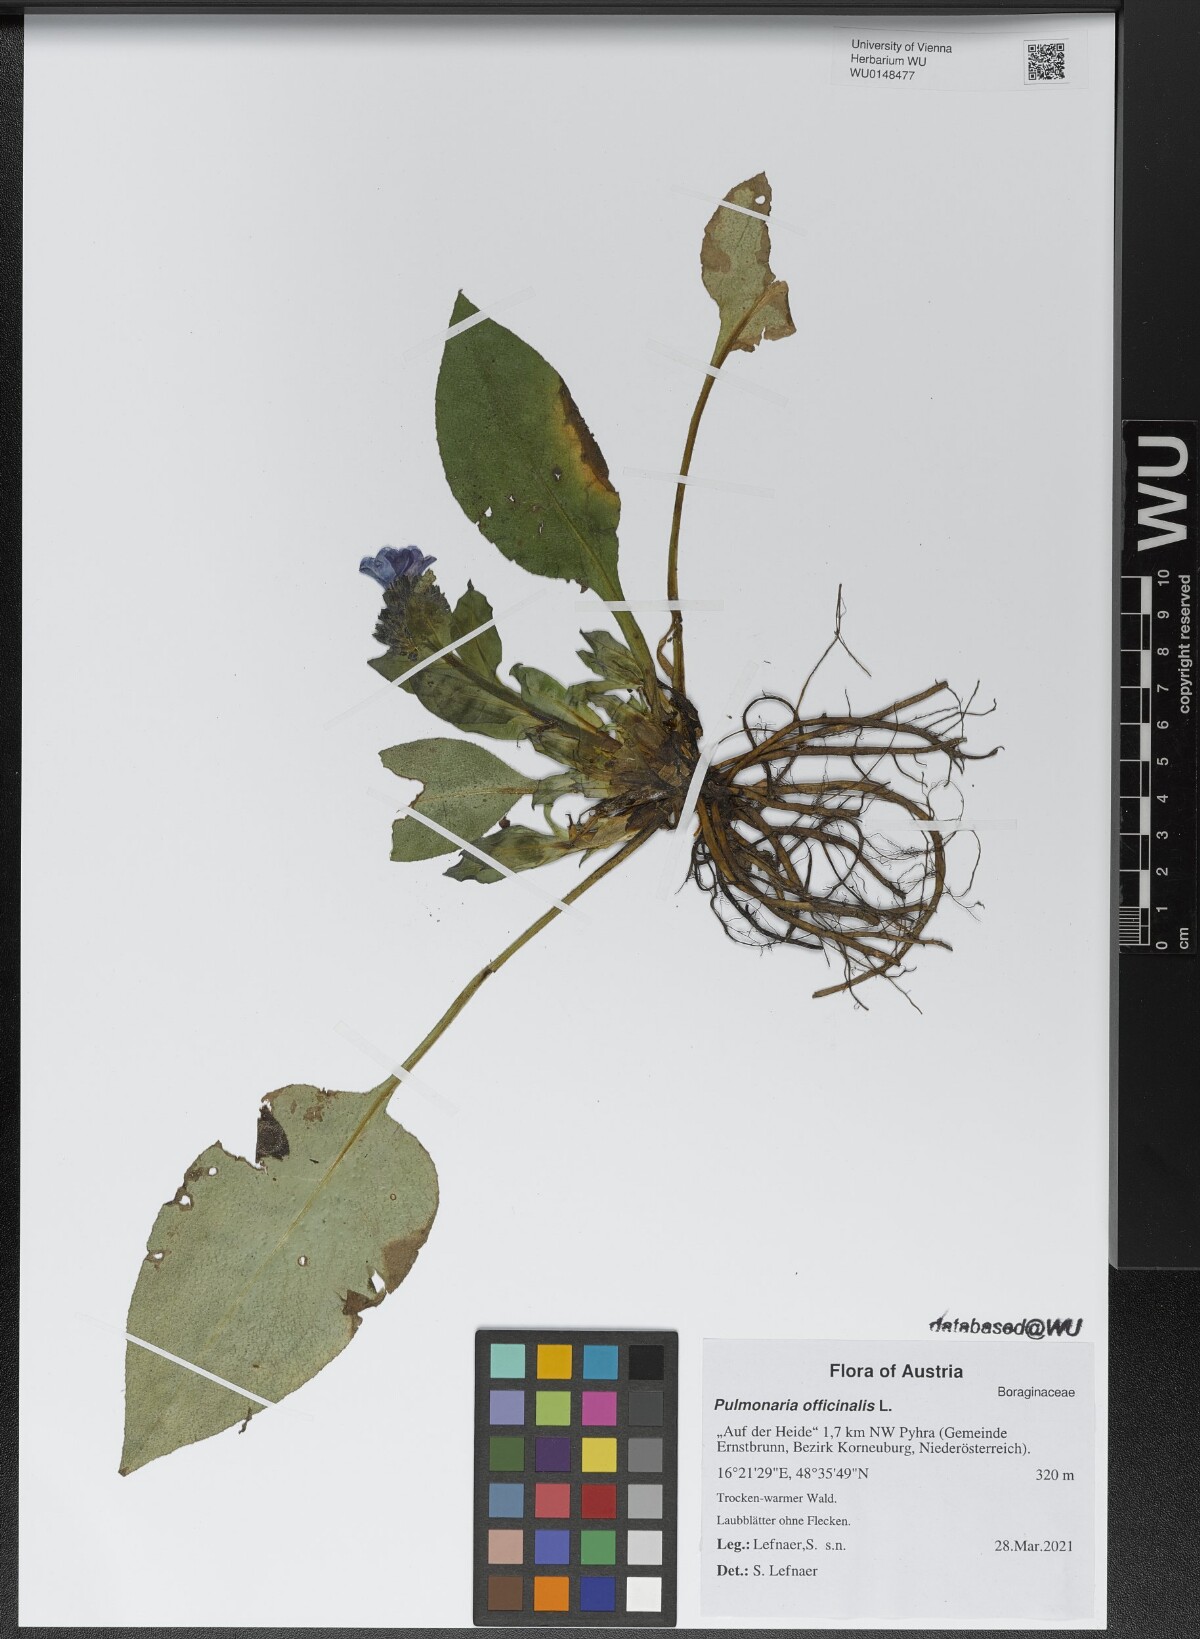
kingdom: Plantae
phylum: Tracheophyta
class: Magnoliopsida
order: Boraginales
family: Boraginaceae
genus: Pulmonaria
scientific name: Pulmonaria officinalis
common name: Lungwort
